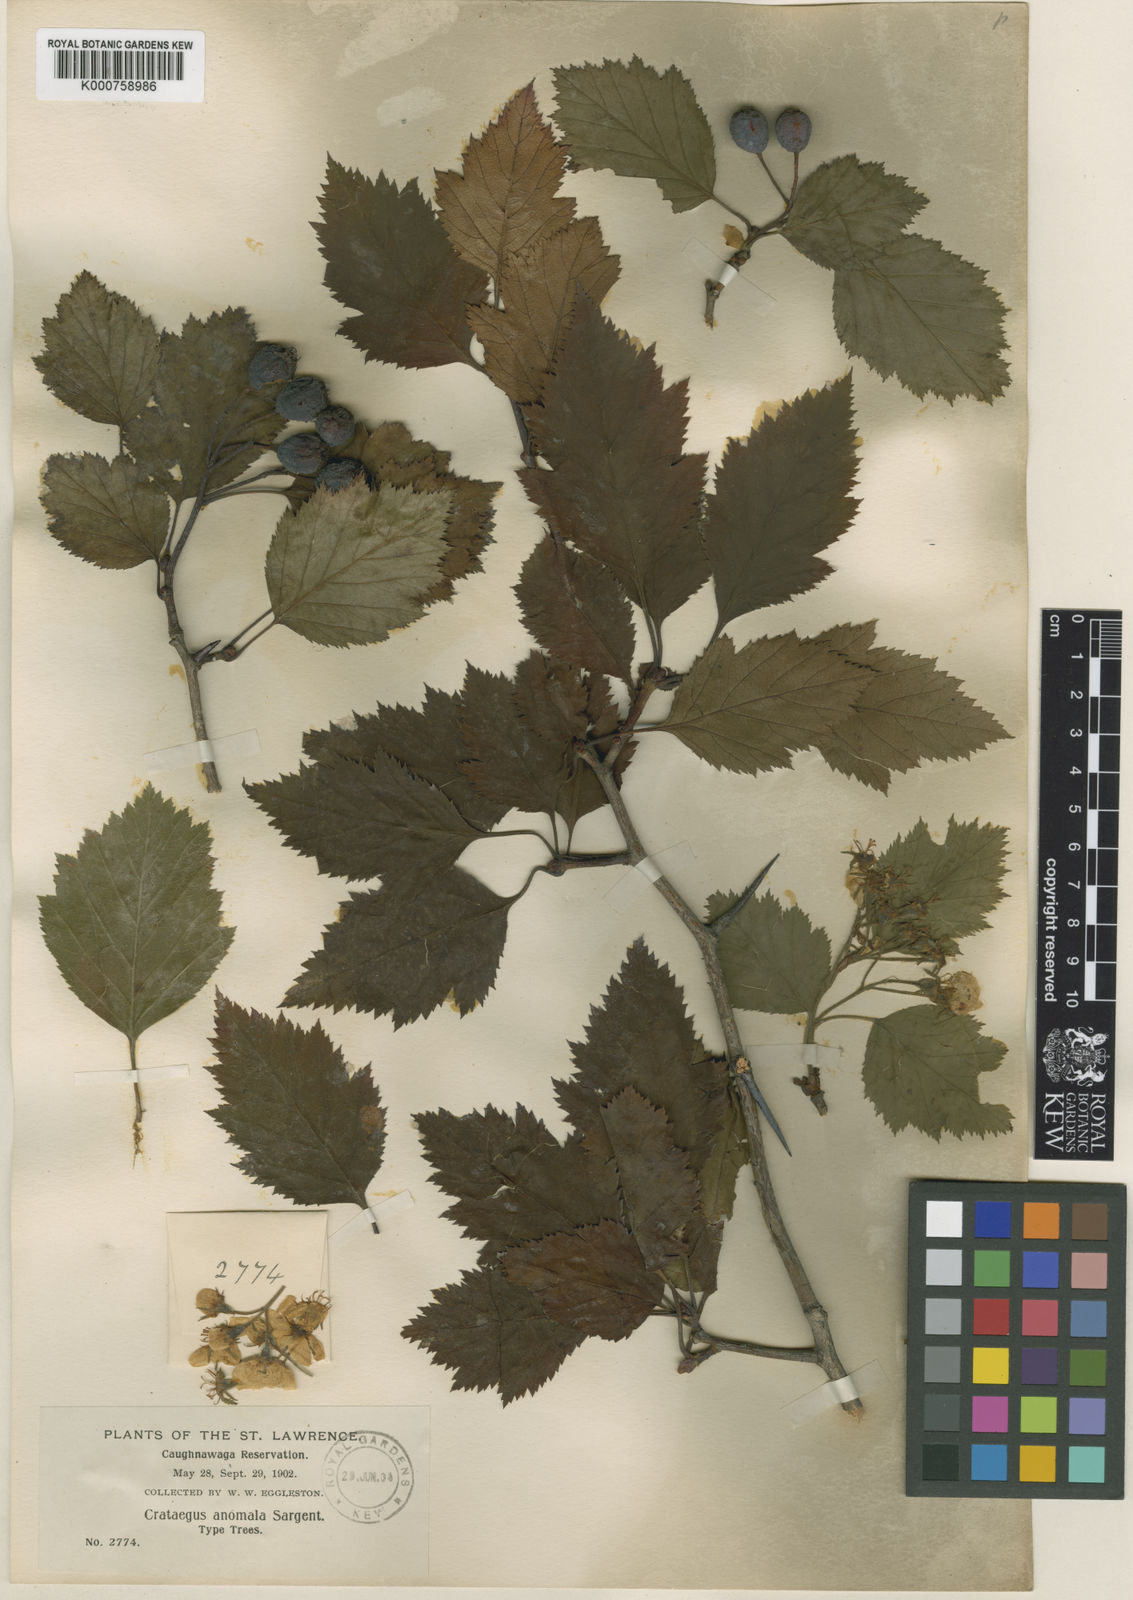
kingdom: Plantae
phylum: Tracheophyta
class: Magnoliopsida
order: Rosales
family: Rosaceae
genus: Crataegus
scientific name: Crataegus holmesiana
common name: Holmes' hawthorn
